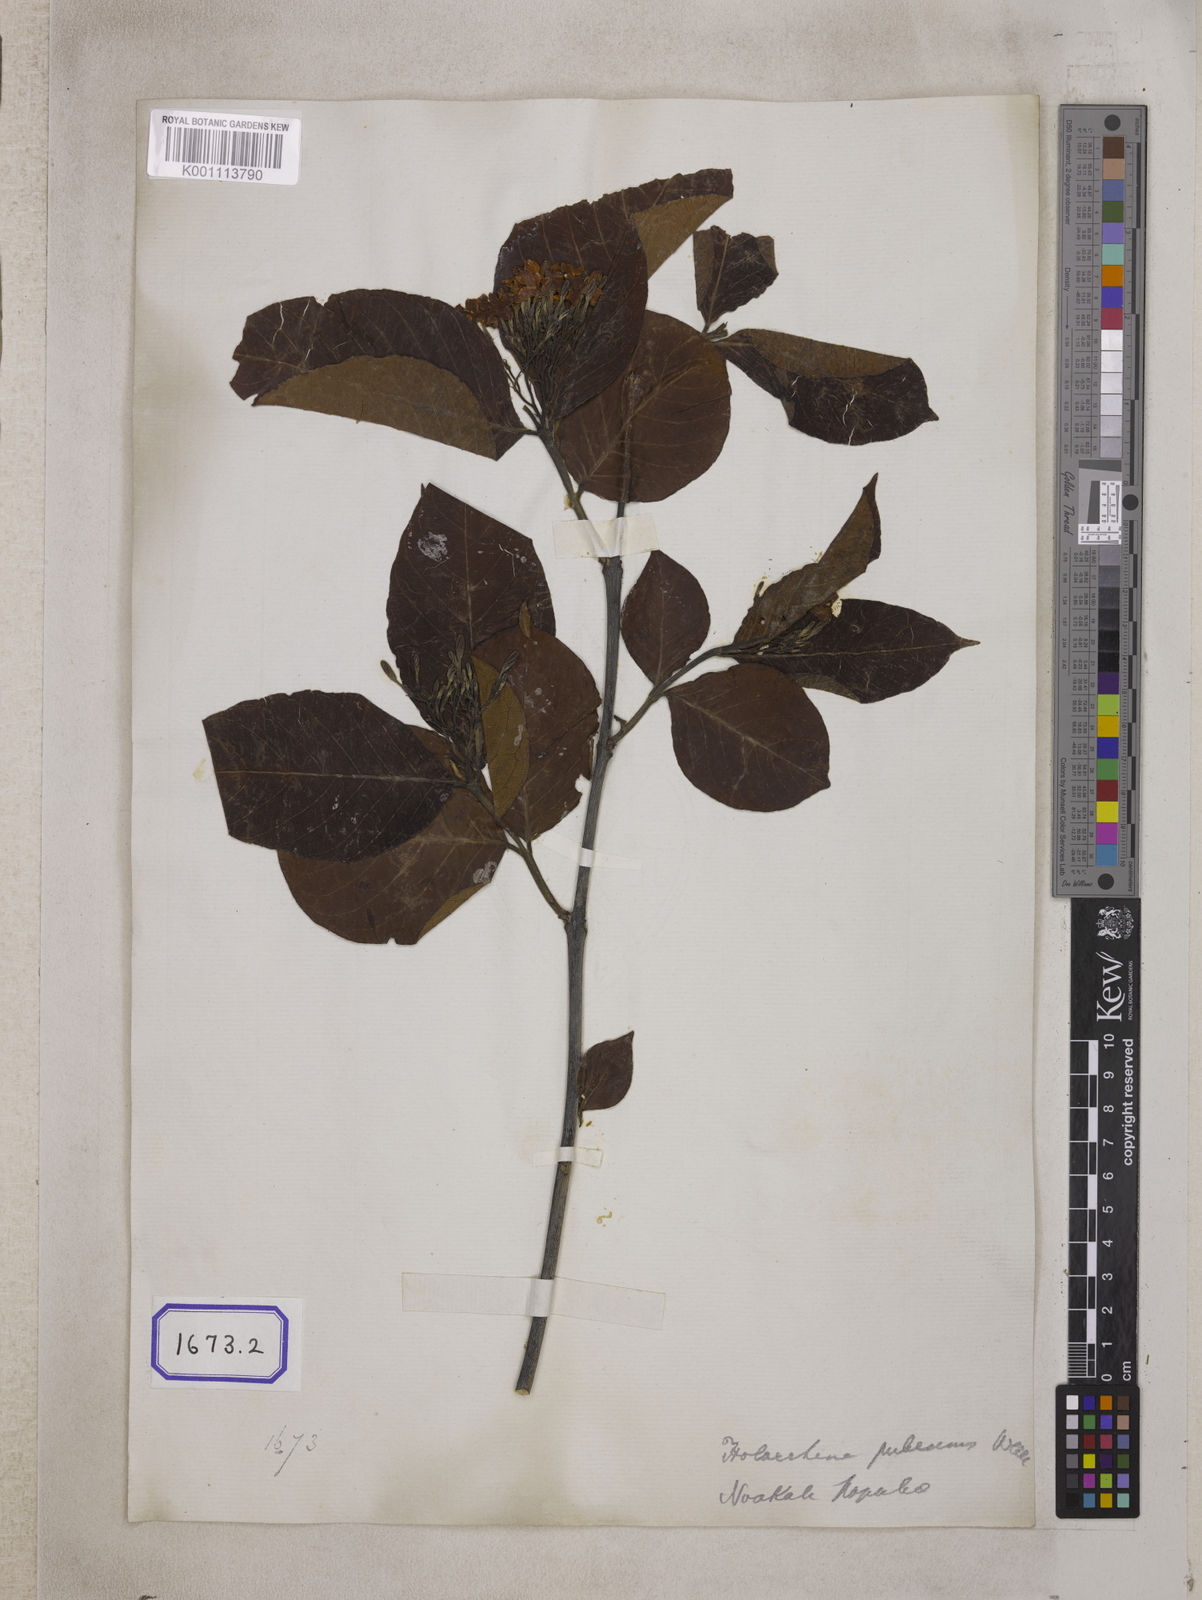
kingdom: Plantae
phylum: Tracheophyta
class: Magnoliopsida
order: Gentianales
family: Apocynaceae
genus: Holarrhena
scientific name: Holarrhena
